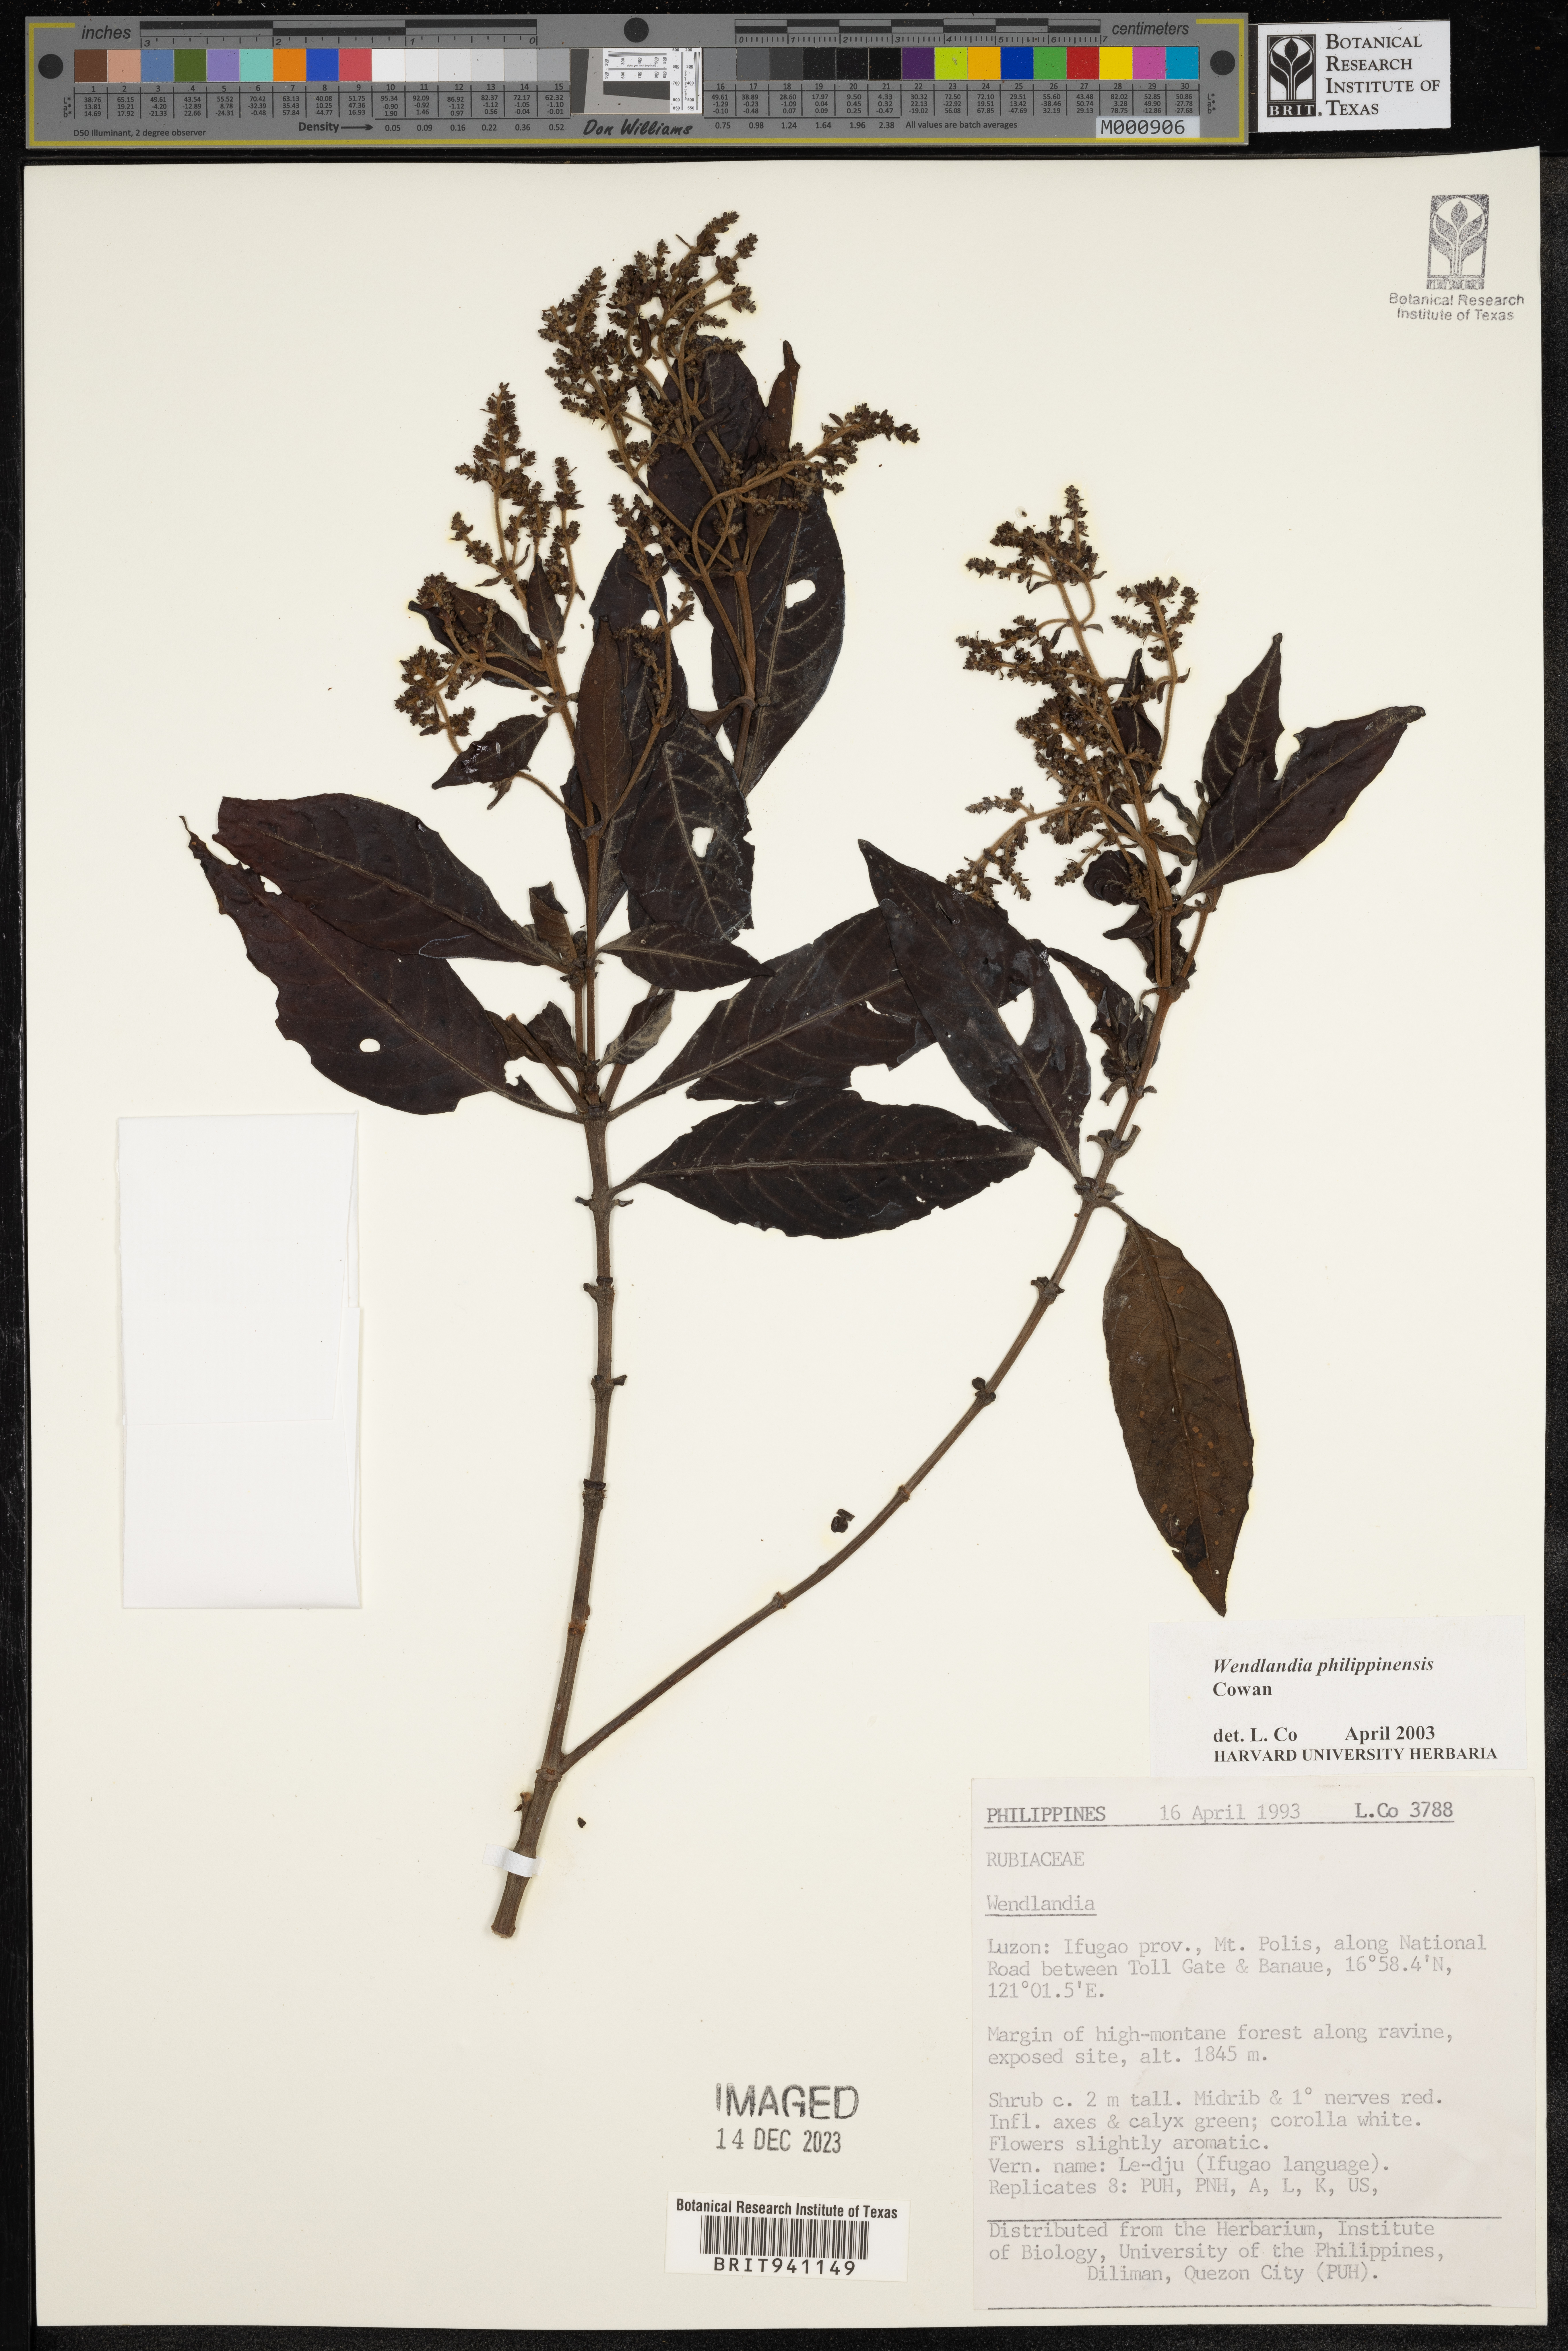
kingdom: Plantae
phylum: Tracheophyta
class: Magnoliopsida
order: Gentianales
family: Rubiaceae
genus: Wendlandia
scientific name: Wendlandia
